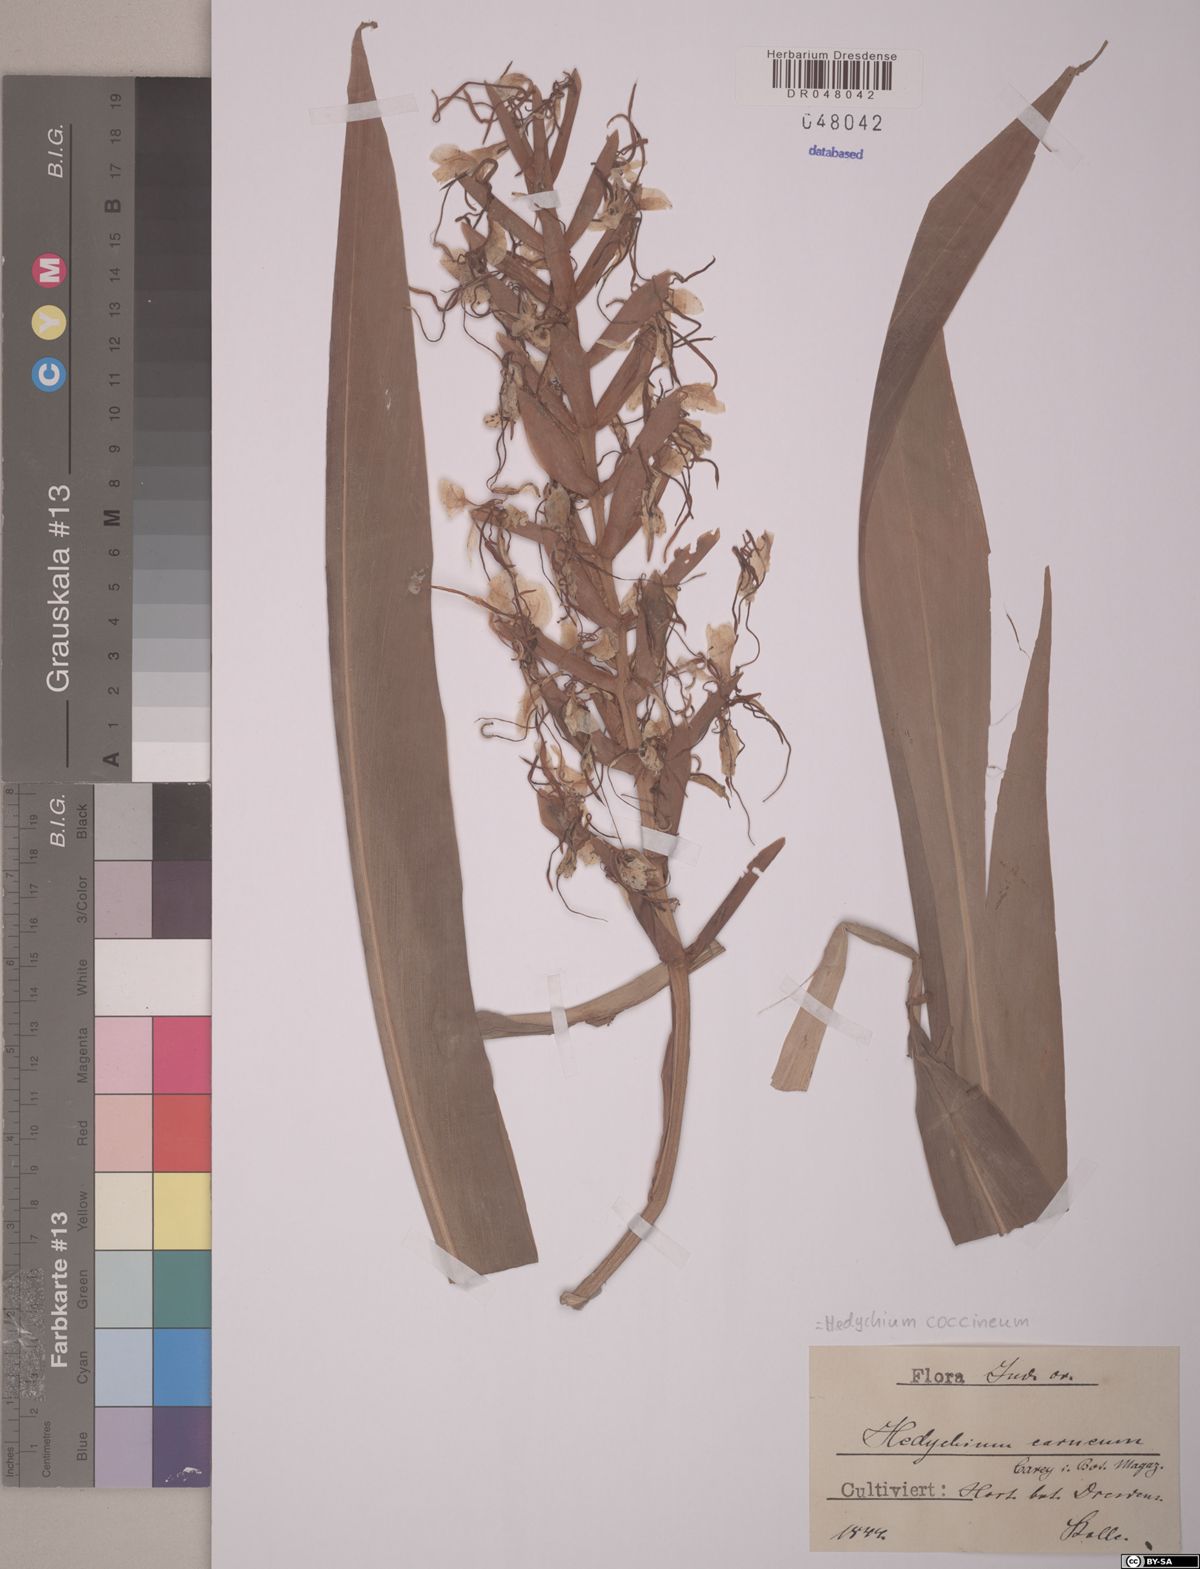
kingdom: Plantae
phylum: Tracheophyta
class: Liliopsida
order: Zingiberales
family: Zingiberaceae
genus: Hedychium
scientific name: Hedychium coccineum
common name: Red ginger-lily
